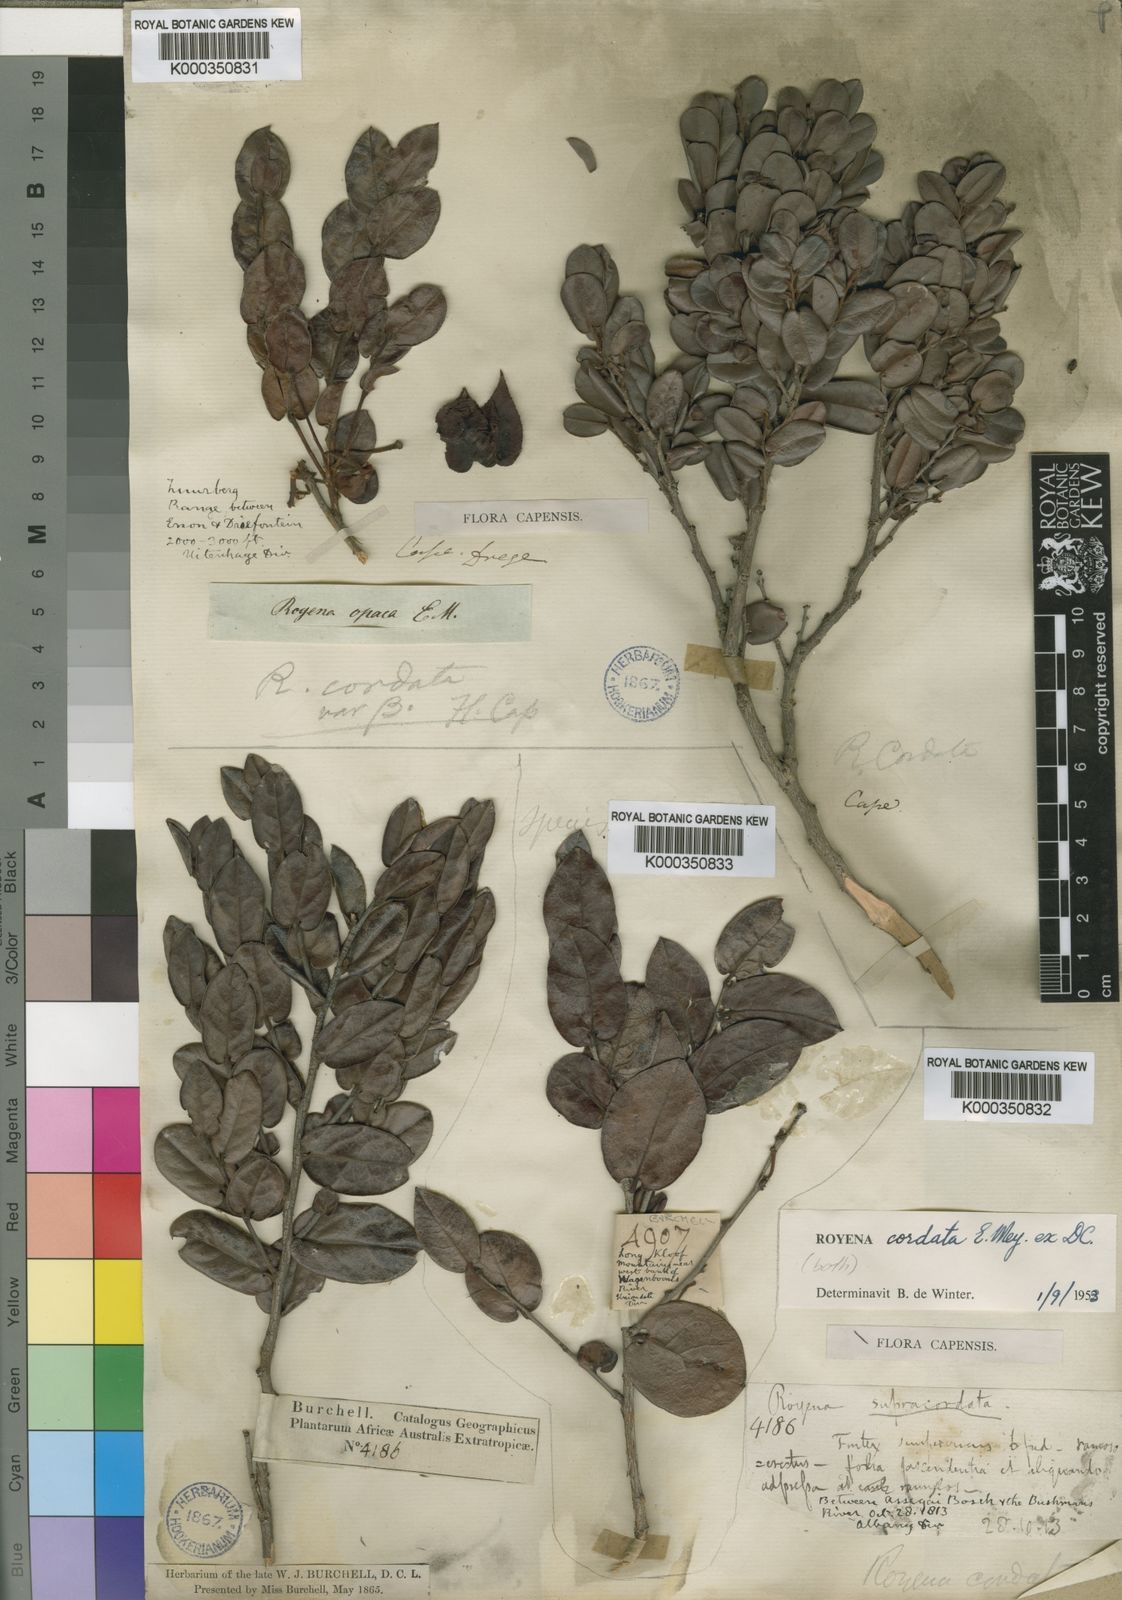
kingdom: Plantae
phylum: Tracheophyta
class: Magnoliopsida
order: Ericales
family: Ebenaceae
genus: Diospyros
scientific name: Diospyros scabrida
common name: Coastal bladder-nut
